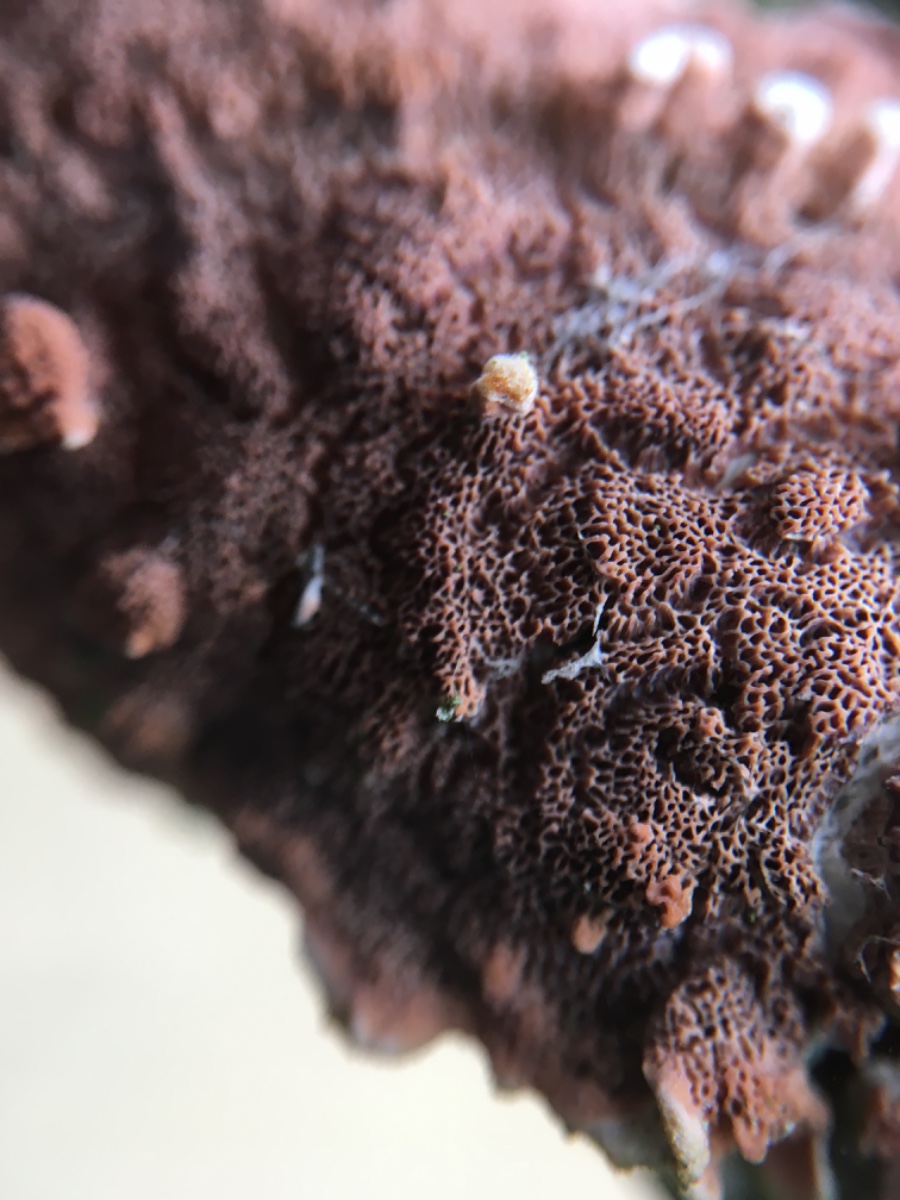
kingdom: Fungi
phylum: Basidiomycota
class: Agaricomycetes
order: Polyporales
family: Irpicaceae
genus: Meruliopsis
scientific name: Meruliopsis taxicola
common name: purpurbrun foldporesvamp
